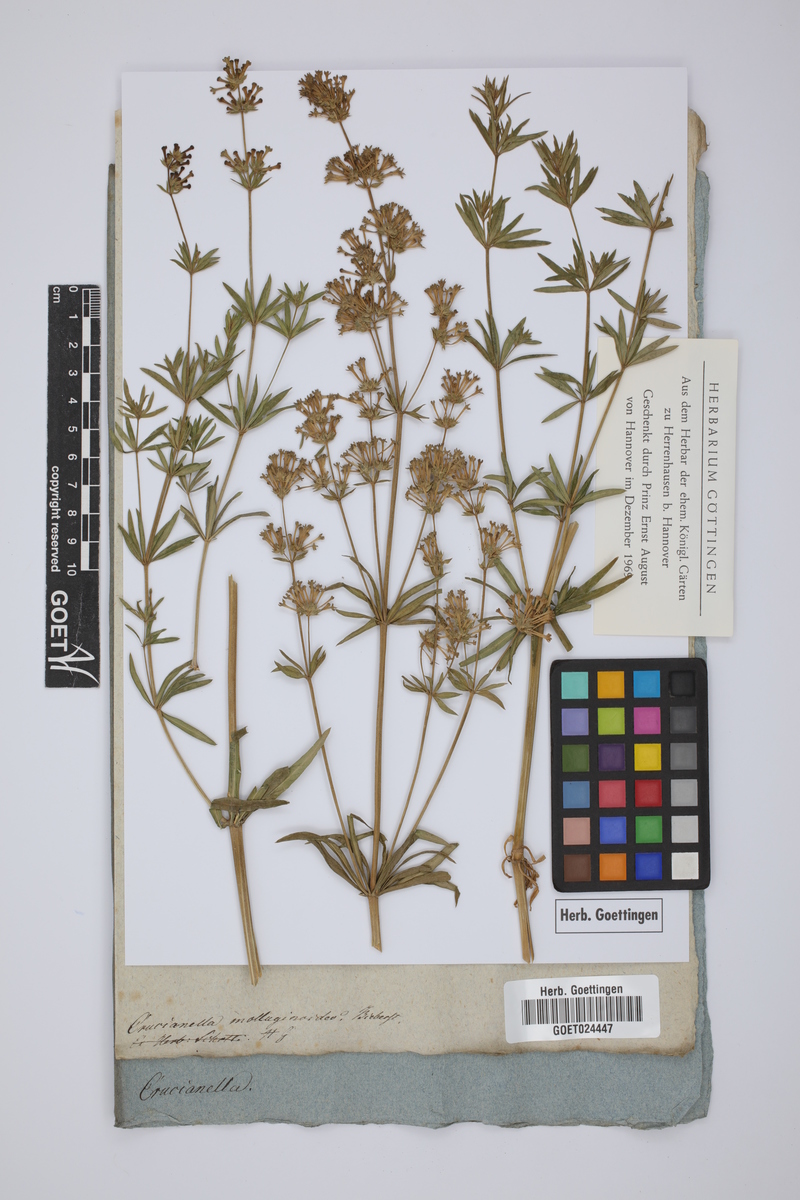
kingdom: Plantae
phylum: Tracheophyta
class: Magnoliopsida
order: Gentianales
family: Rubiaceae
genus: Asperula
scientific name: Asperula molluginoides
